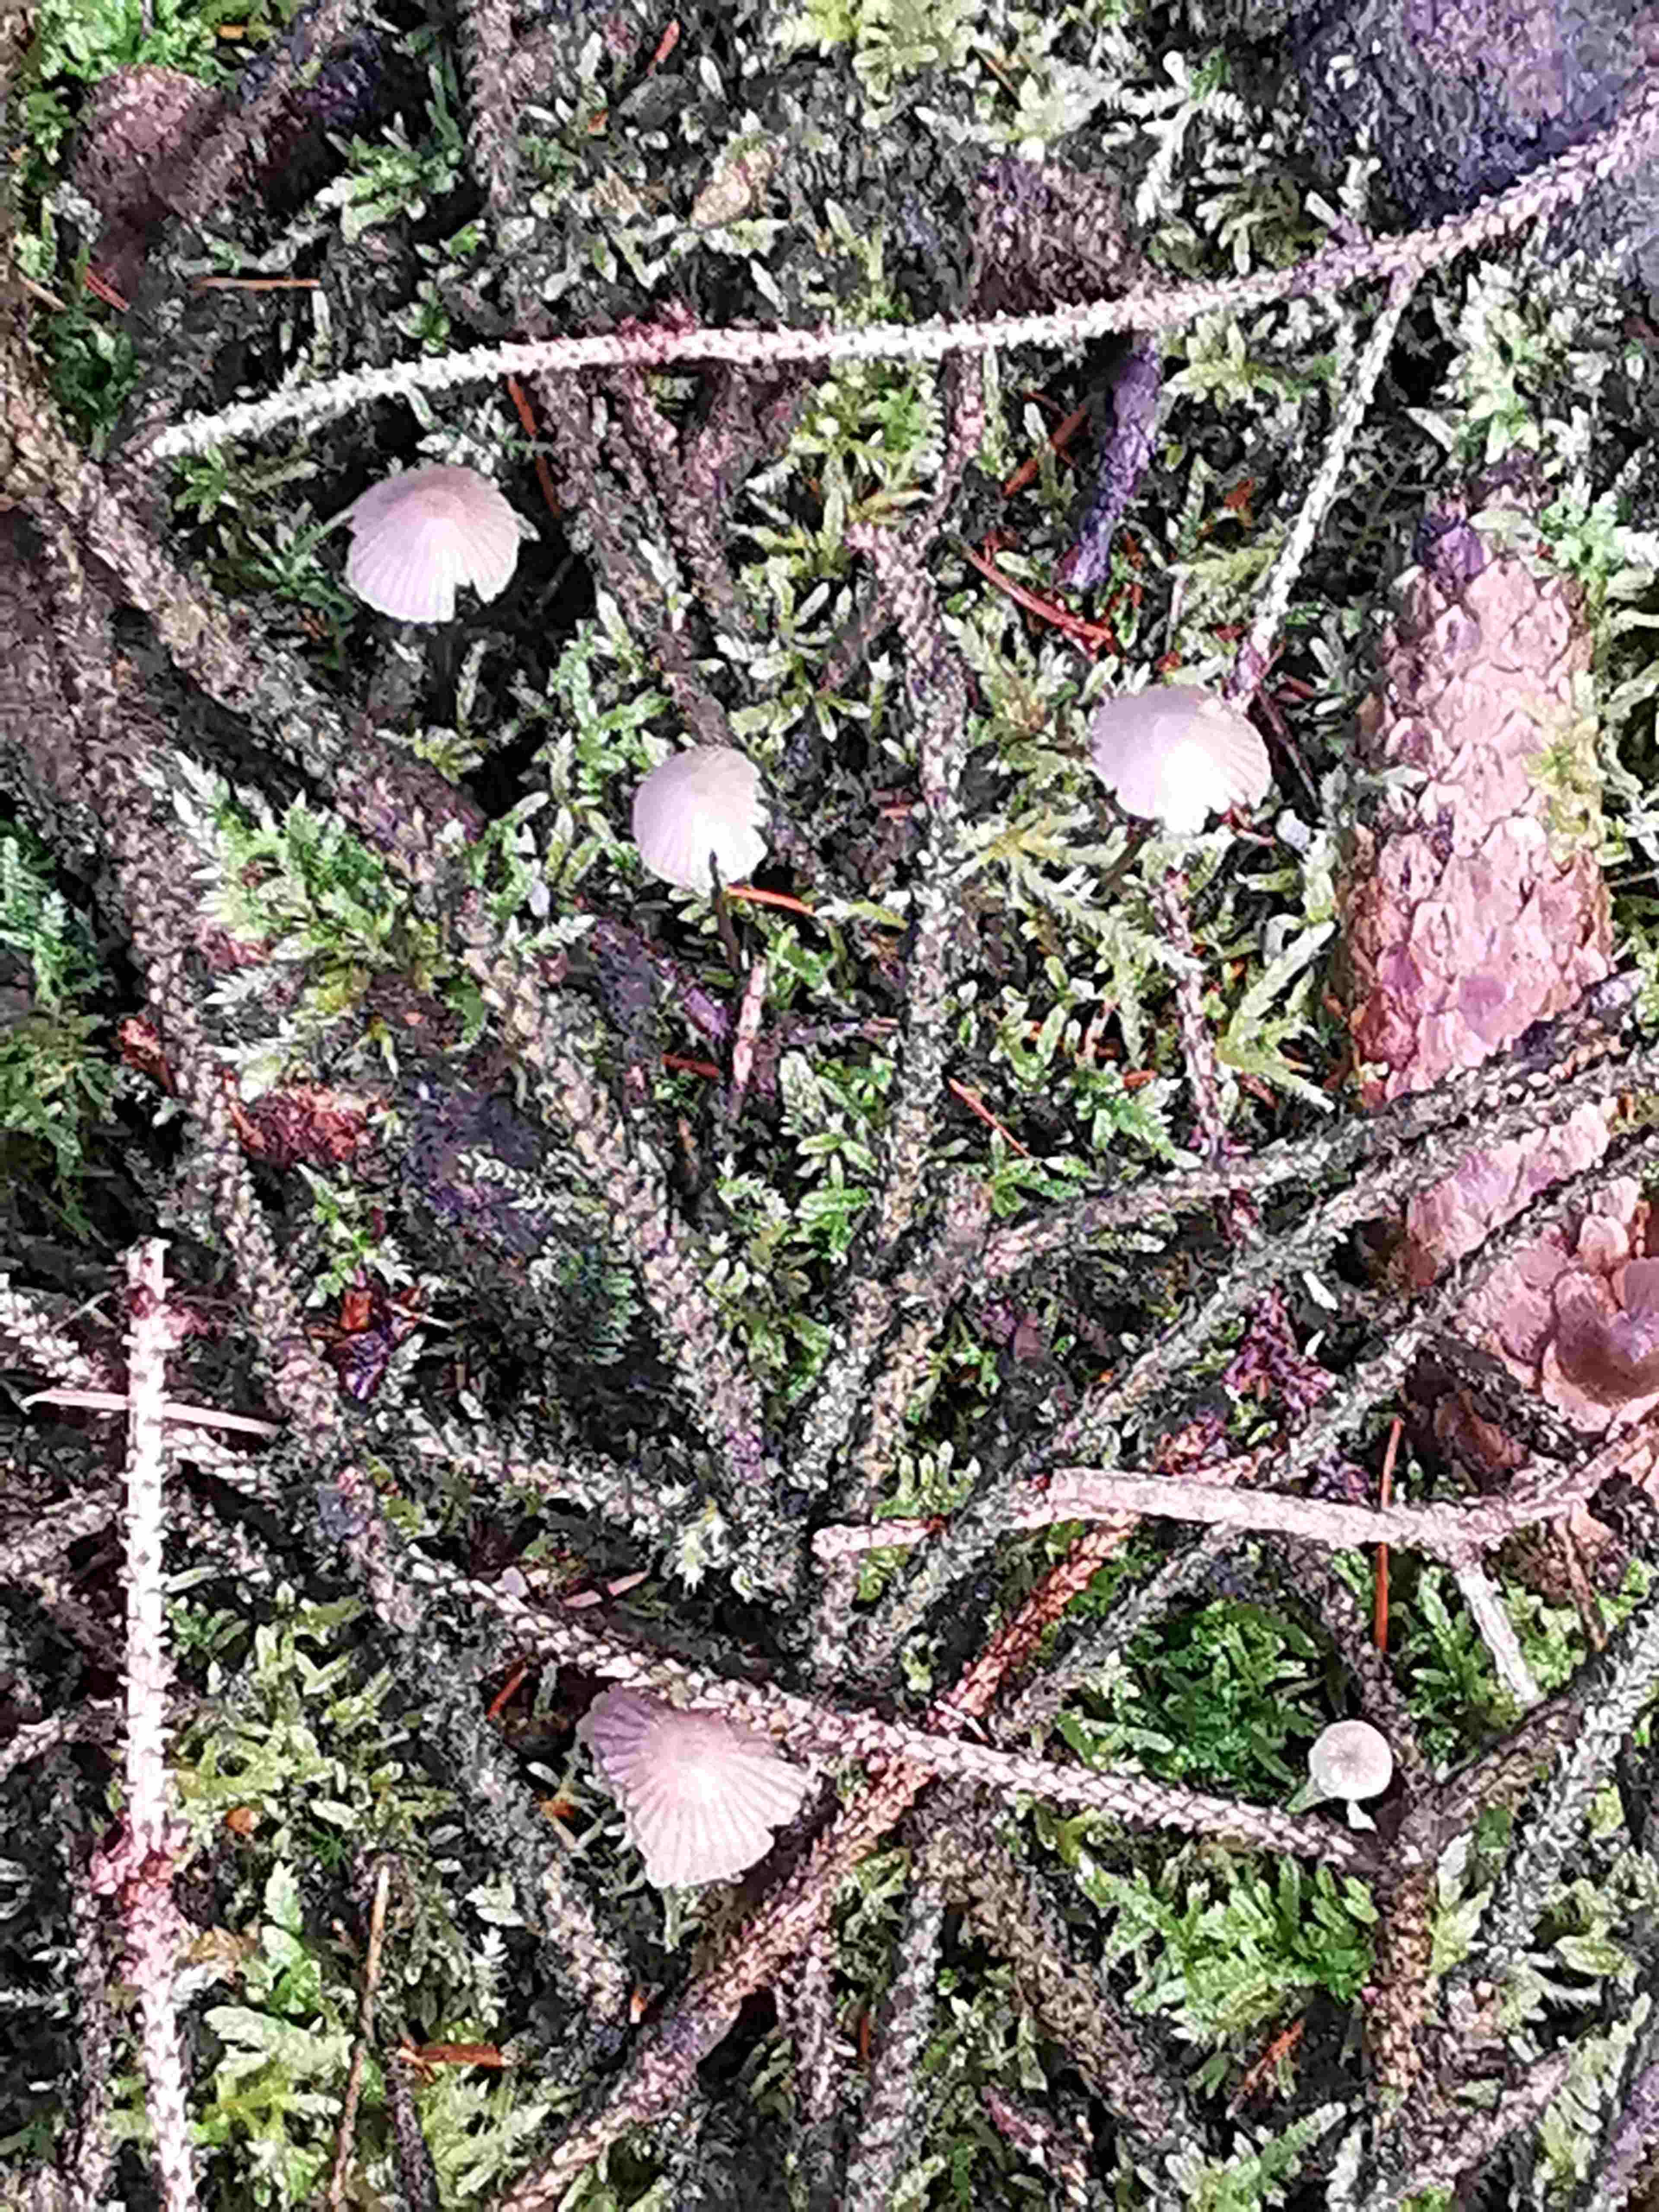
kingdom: Fungi
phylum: Basidiomycota
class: Agaricomycetes
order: Agaricales
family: Mycenaceae
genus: Mycena
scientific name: Mycena
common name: huesvamp
